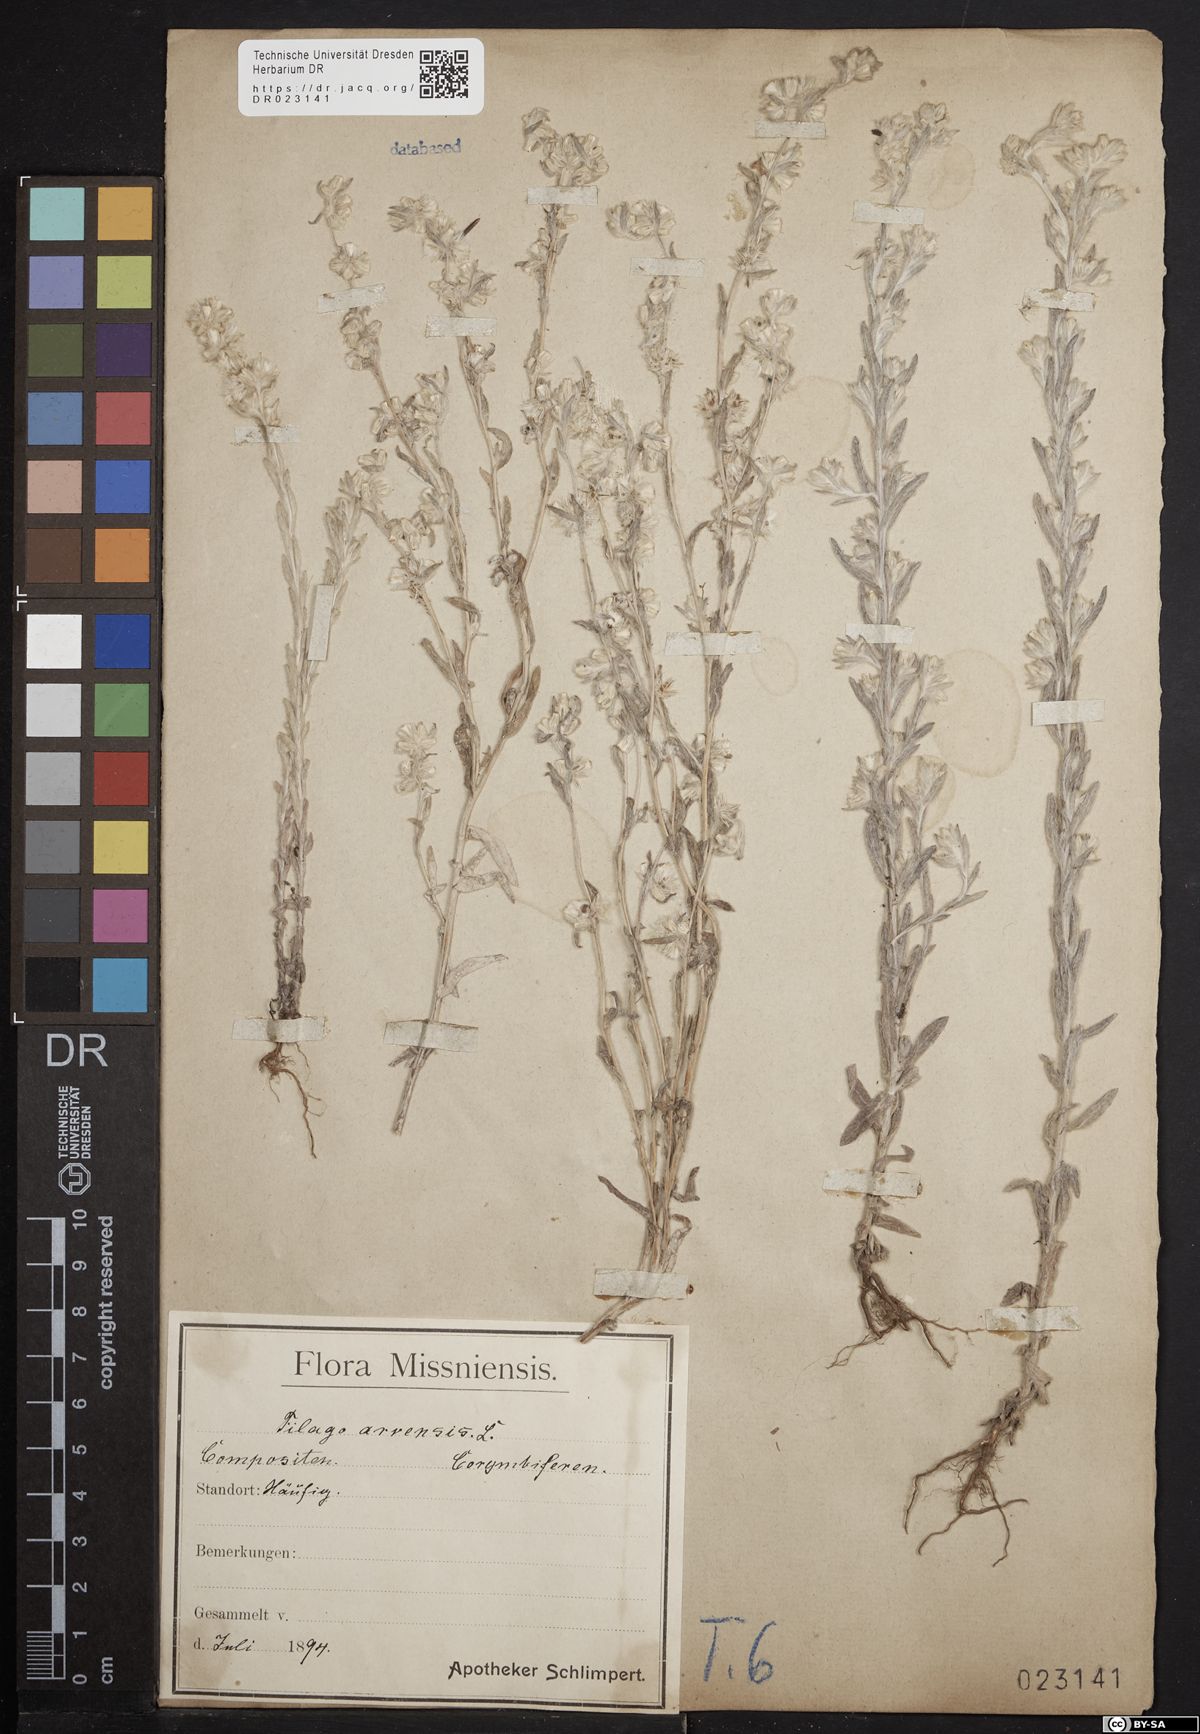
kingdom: Plantae
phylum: Tracheophyta
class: Magnoliopsida
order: Asterales
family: Asteraceae
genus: Filago
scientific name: Filago arvensis
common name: Field cudweed
